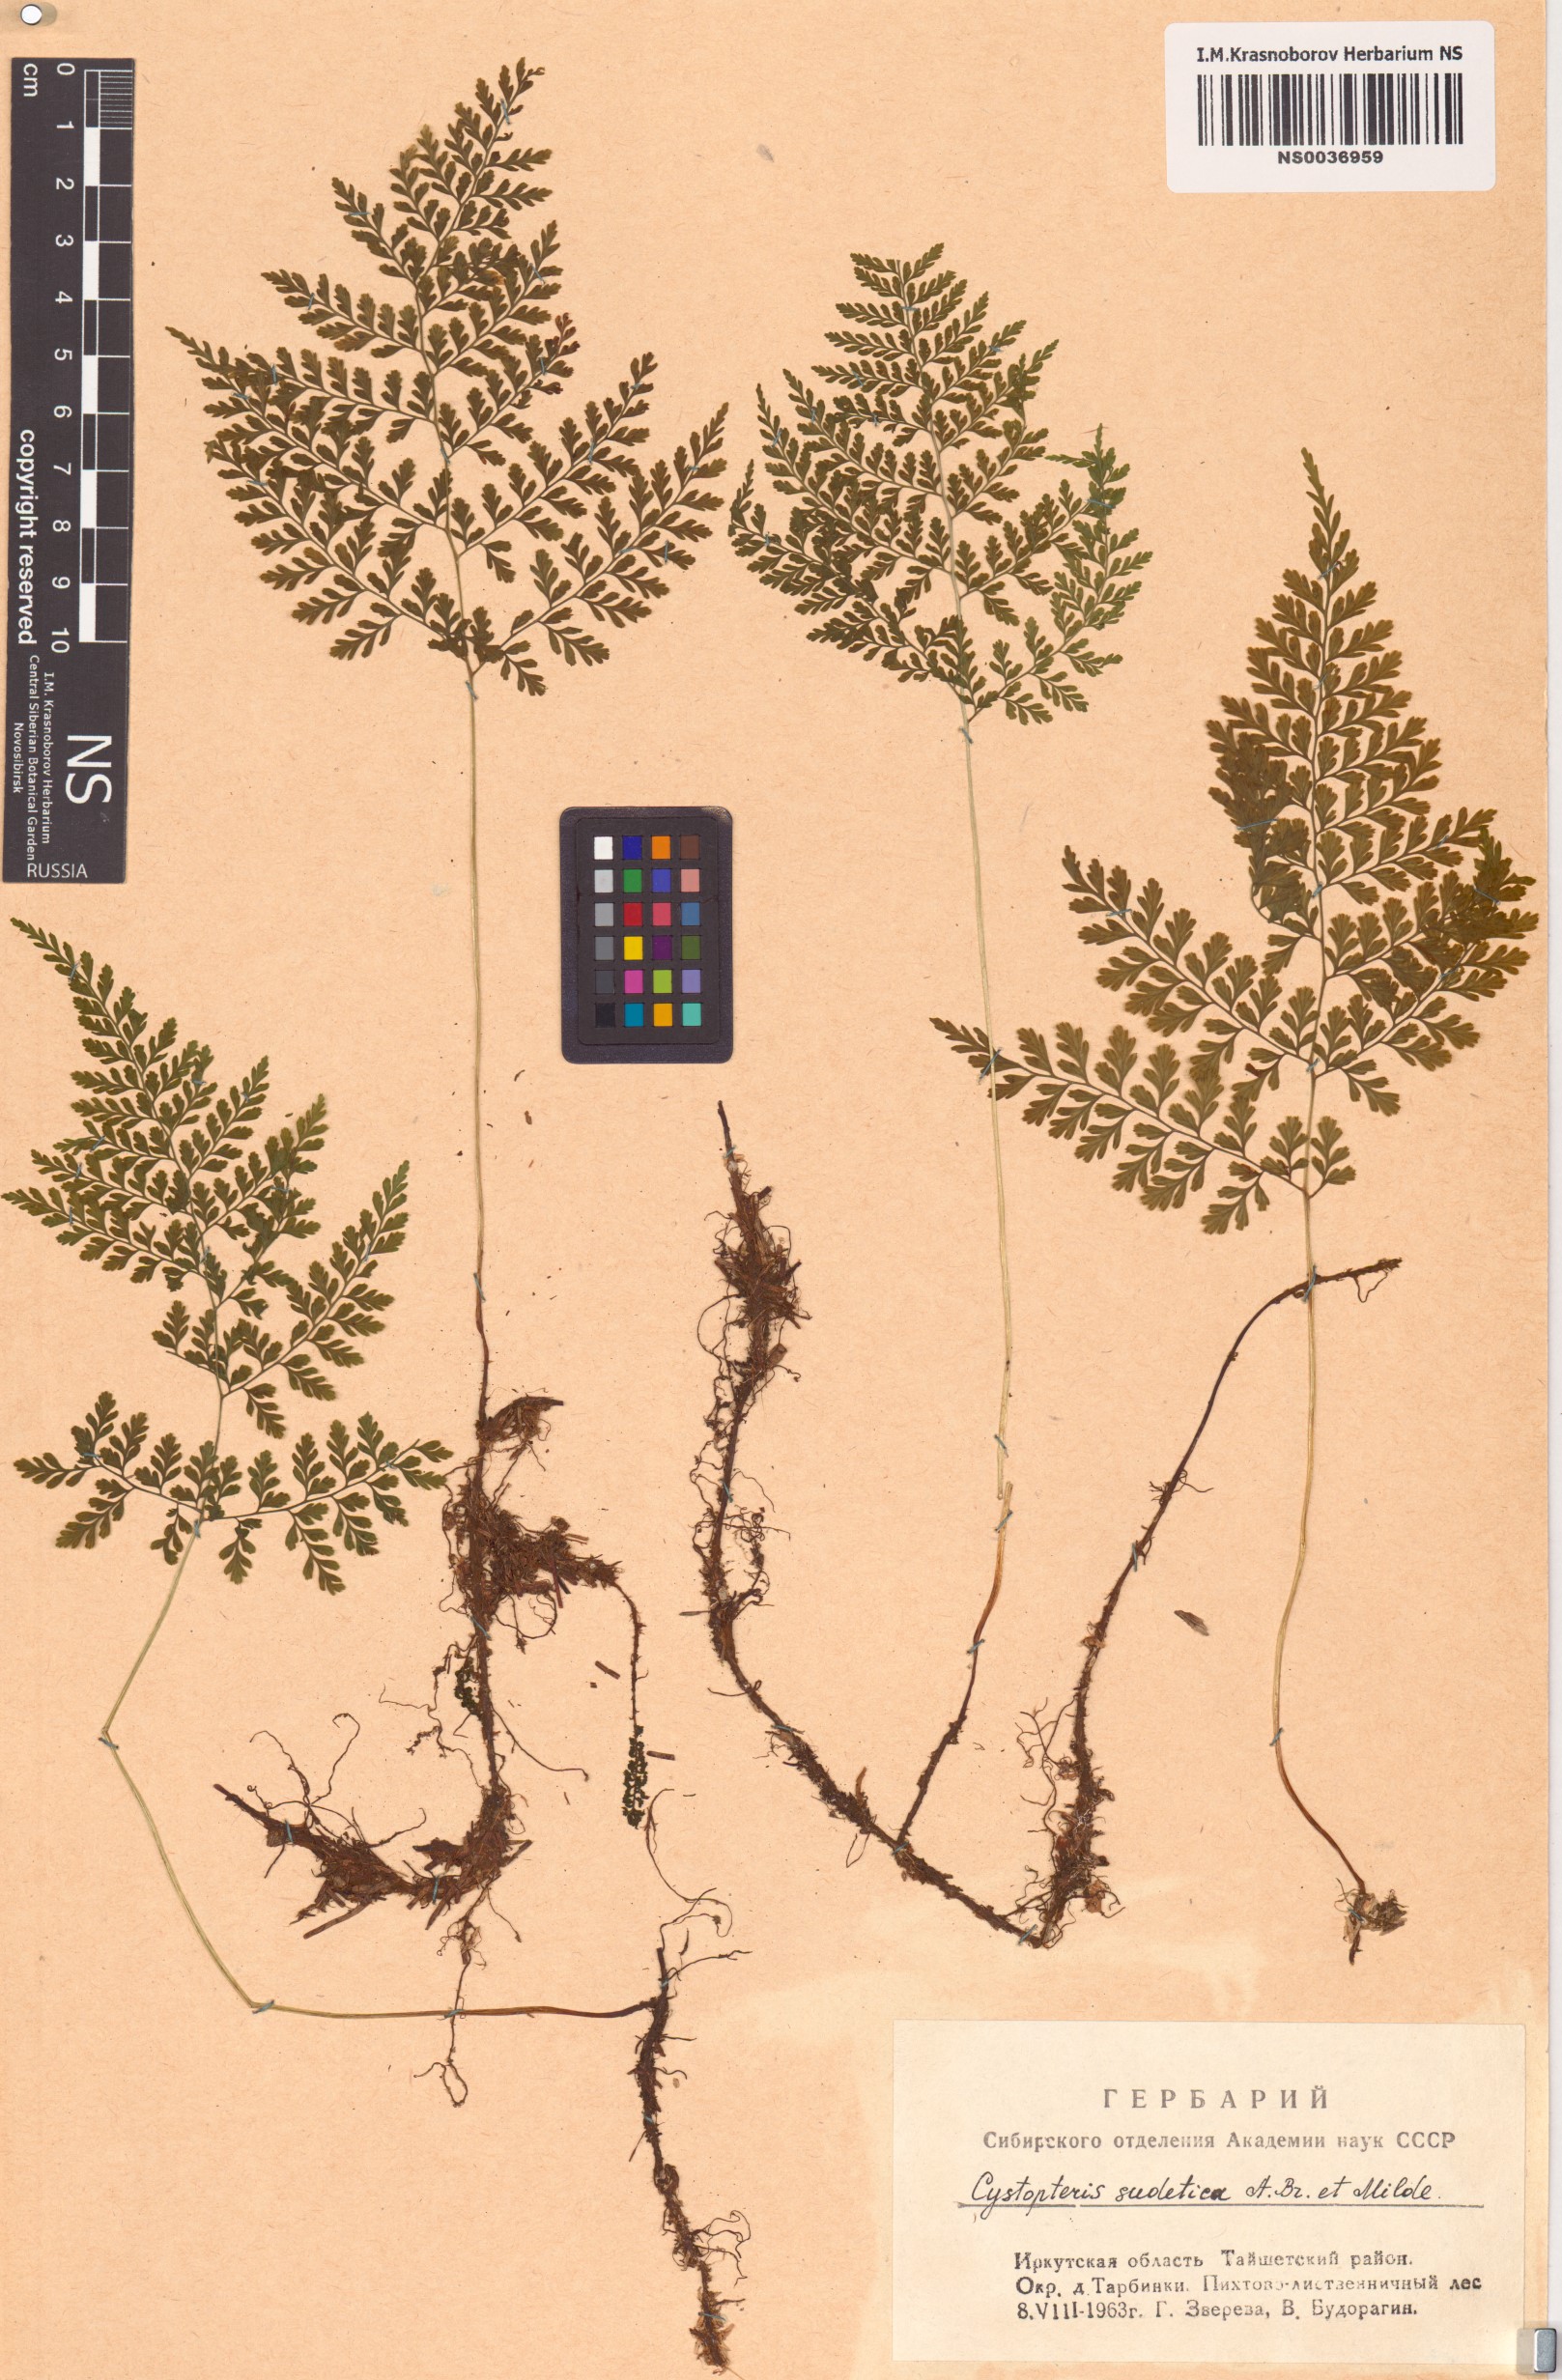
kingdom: Plantae
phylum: Tracheophyta
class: Polypodiopsida
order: Polypodiales
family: Cystopteridaceae
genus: Cystopteris
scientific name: Cystopteris sudetica
